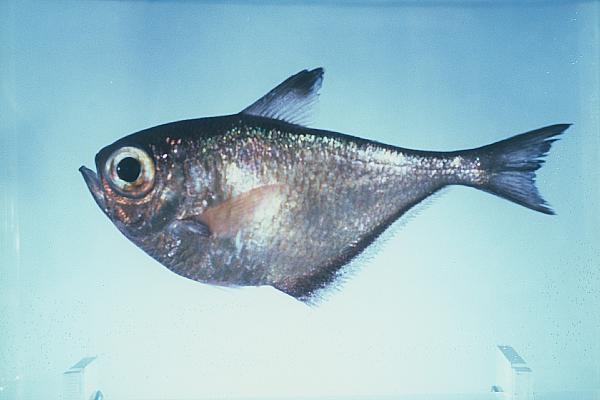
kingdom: Animalia
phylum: Chordata
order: Perciformes
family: Pempheridae
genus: Pempheris
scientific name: Pempheris schwenkii
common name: Silver bullseye
